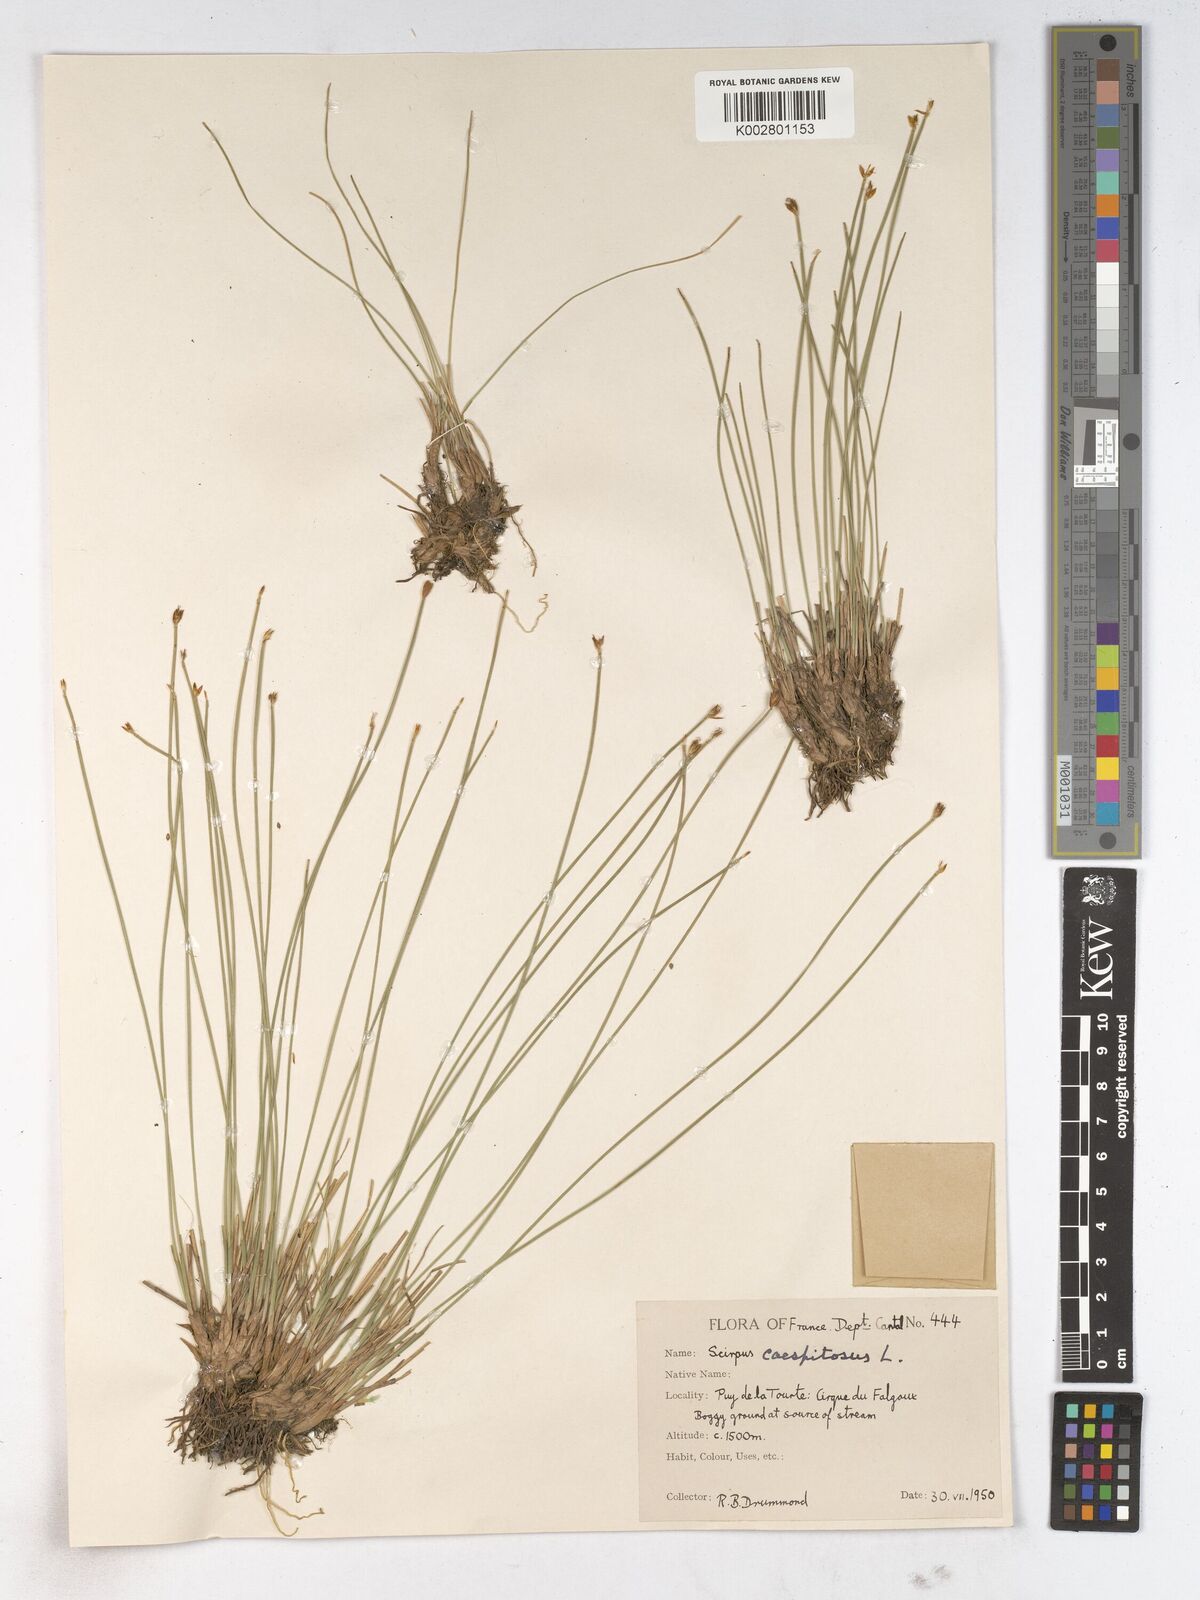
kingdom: Plantae
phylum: Tracheophyta
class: Liliopsida
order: Poales
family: Cyperaceae
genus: Trichophorum
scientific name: Trichophorum cespitosum
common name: Cespitose bulrush
